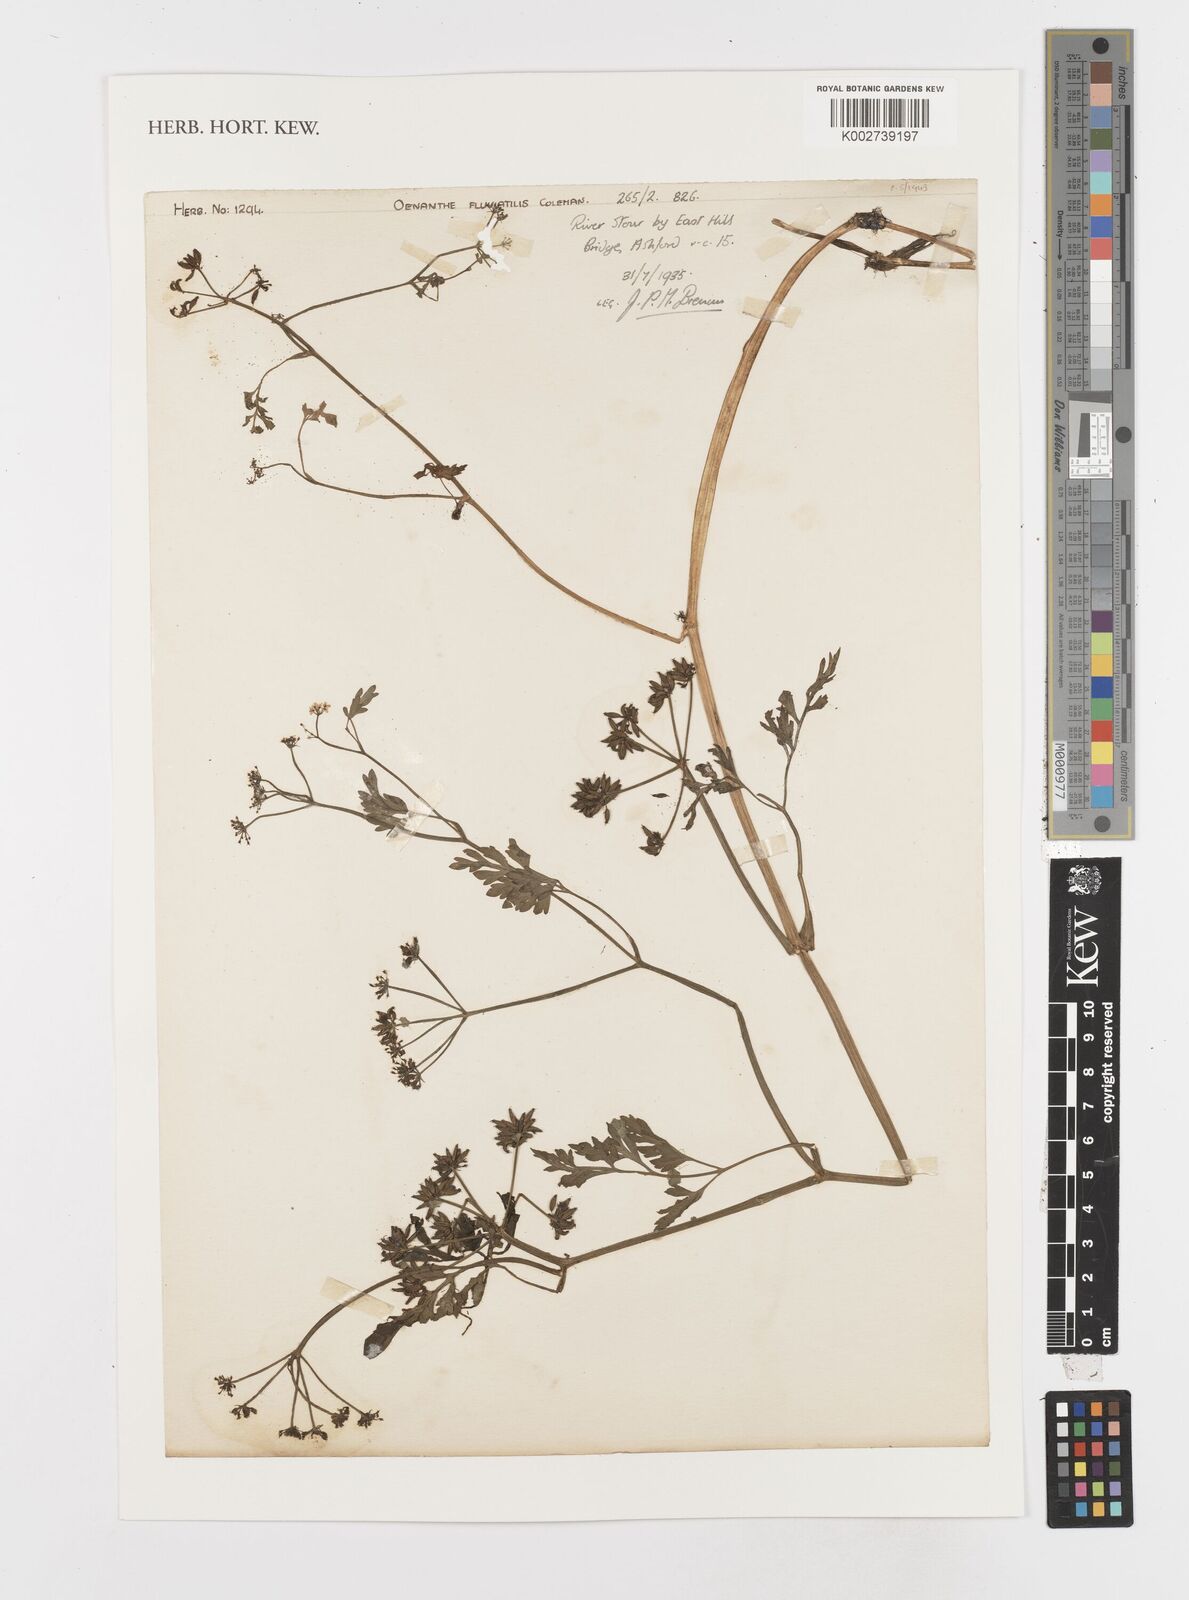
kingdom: Plantae
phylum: Tracheophyta
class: Magnoliopsida
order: Apiales
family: Apiaceae
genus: Oenanthe
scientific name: Oenanthe fluviatilis
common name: River water-dropwort
